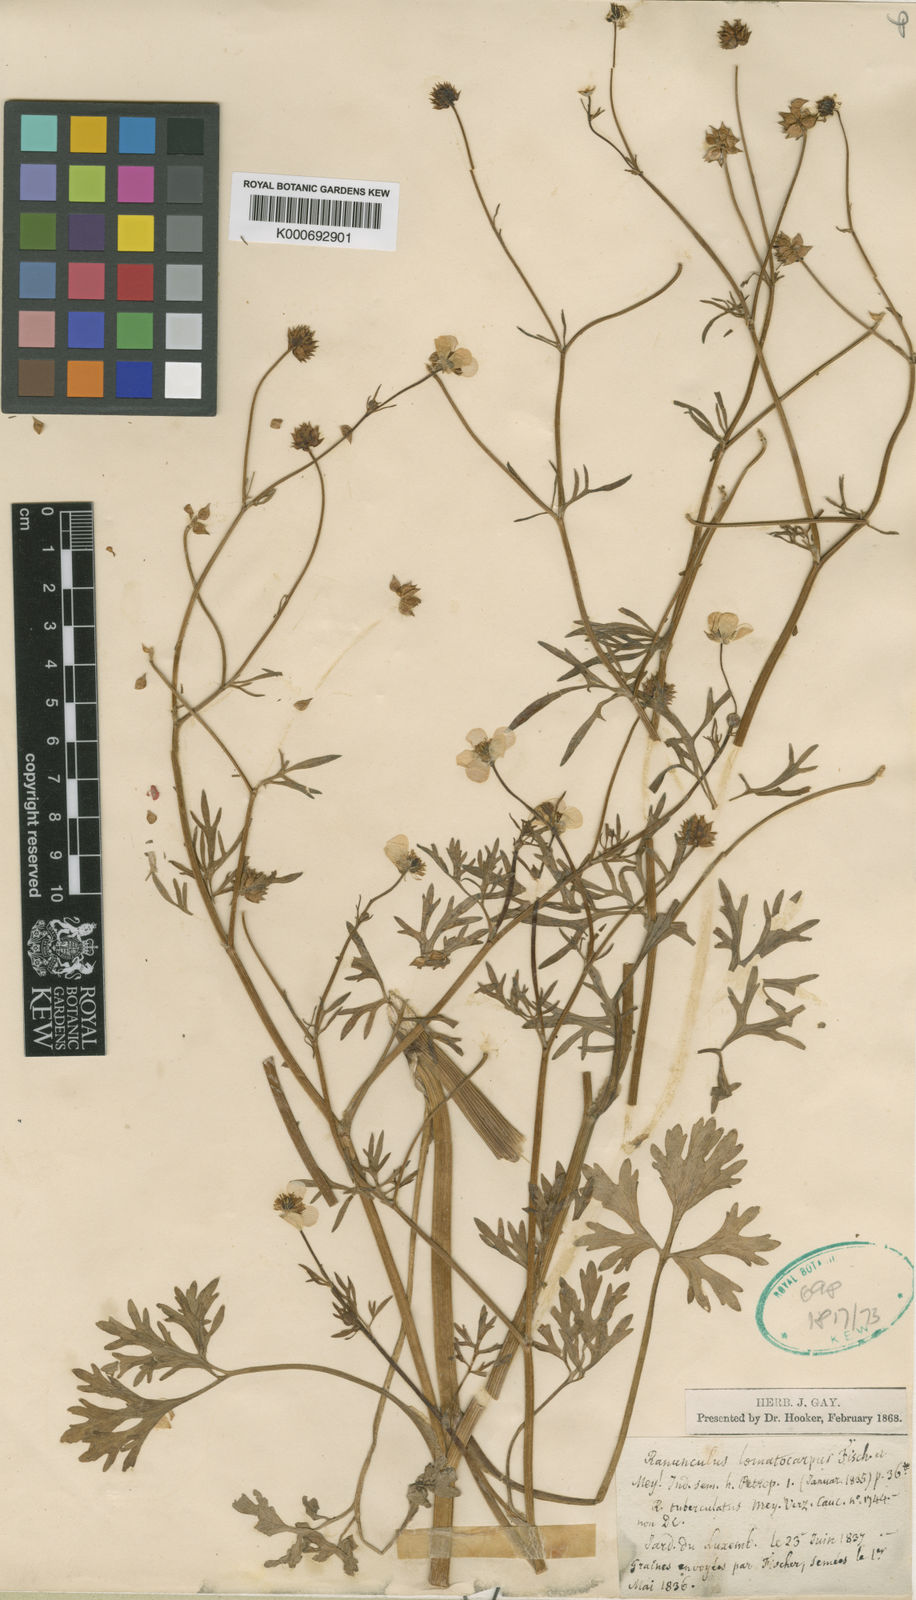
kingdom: Plantae
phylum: Tracheophyta
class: Magnoliopsida
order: Ranunculales
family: Ranunculaceae
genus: Ranunculus
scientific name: Ranunculus cornutus
